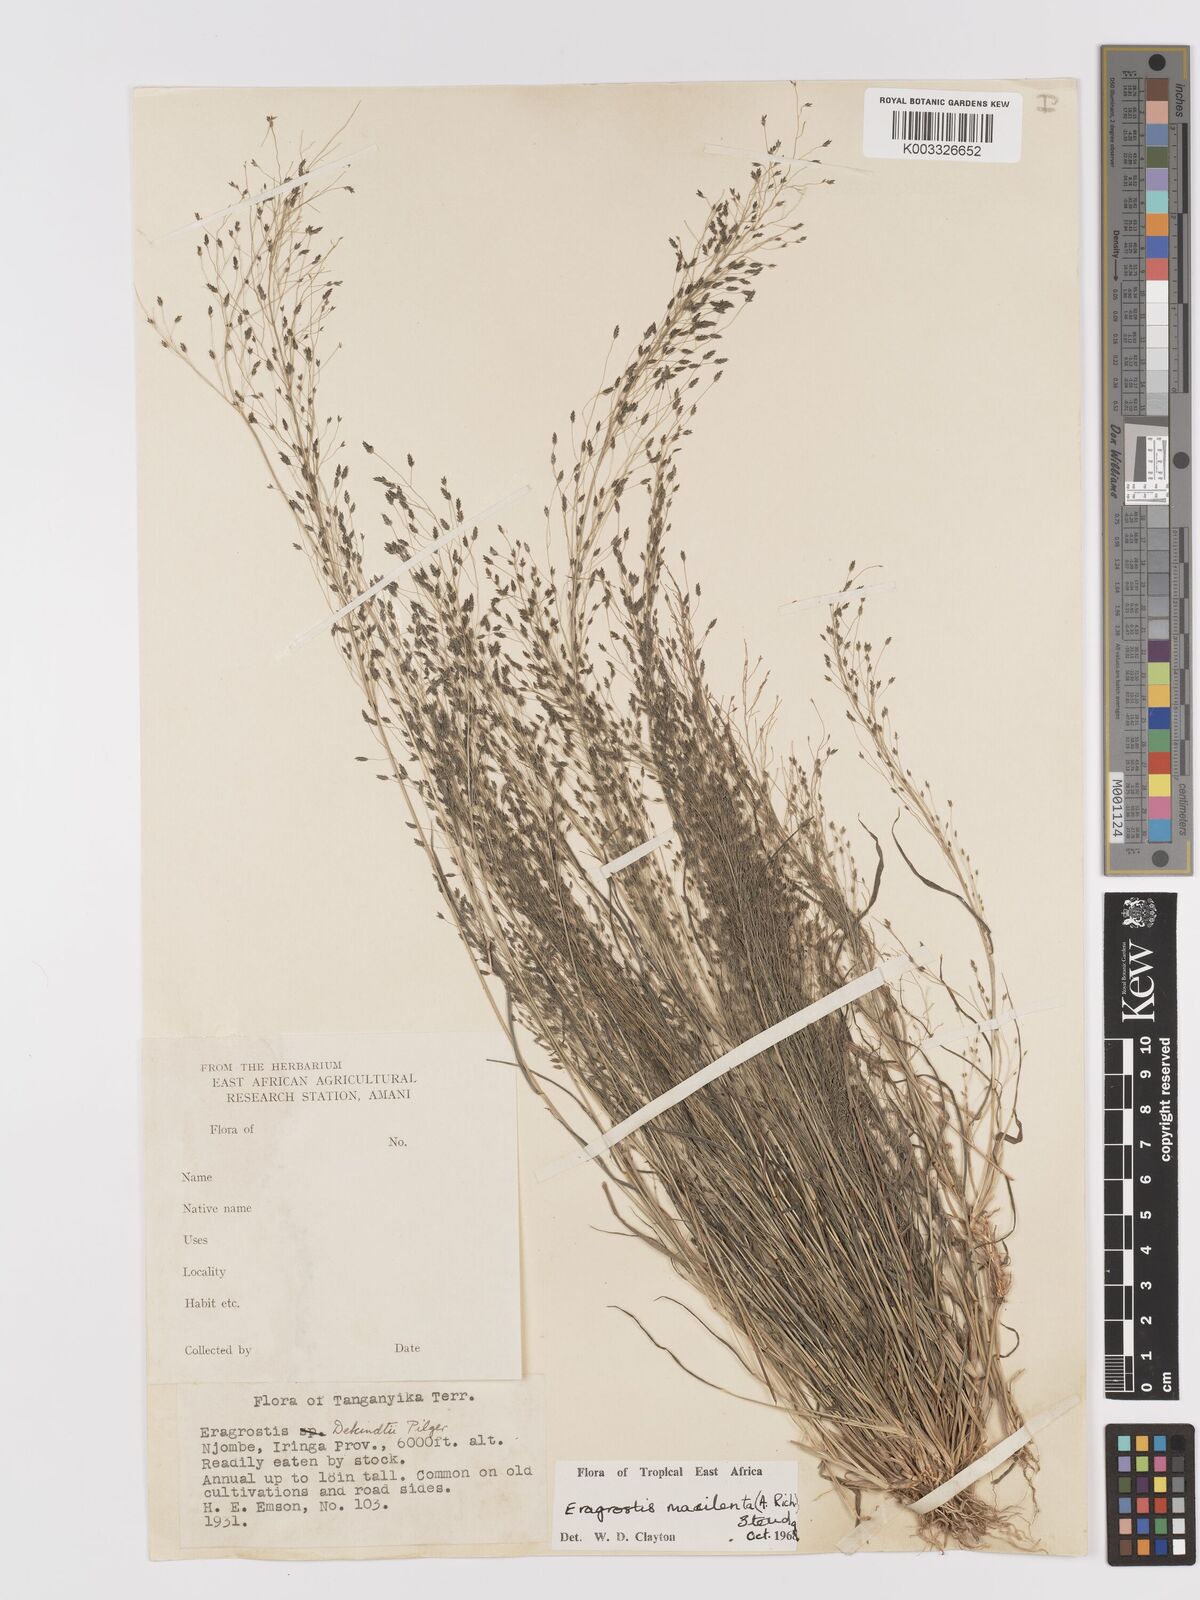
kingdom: Plantae
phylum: Tracheophyta
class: Liliopsida
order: Poales
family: Poaceae
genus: Eragrostis
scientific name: Eragrostis macilenta
